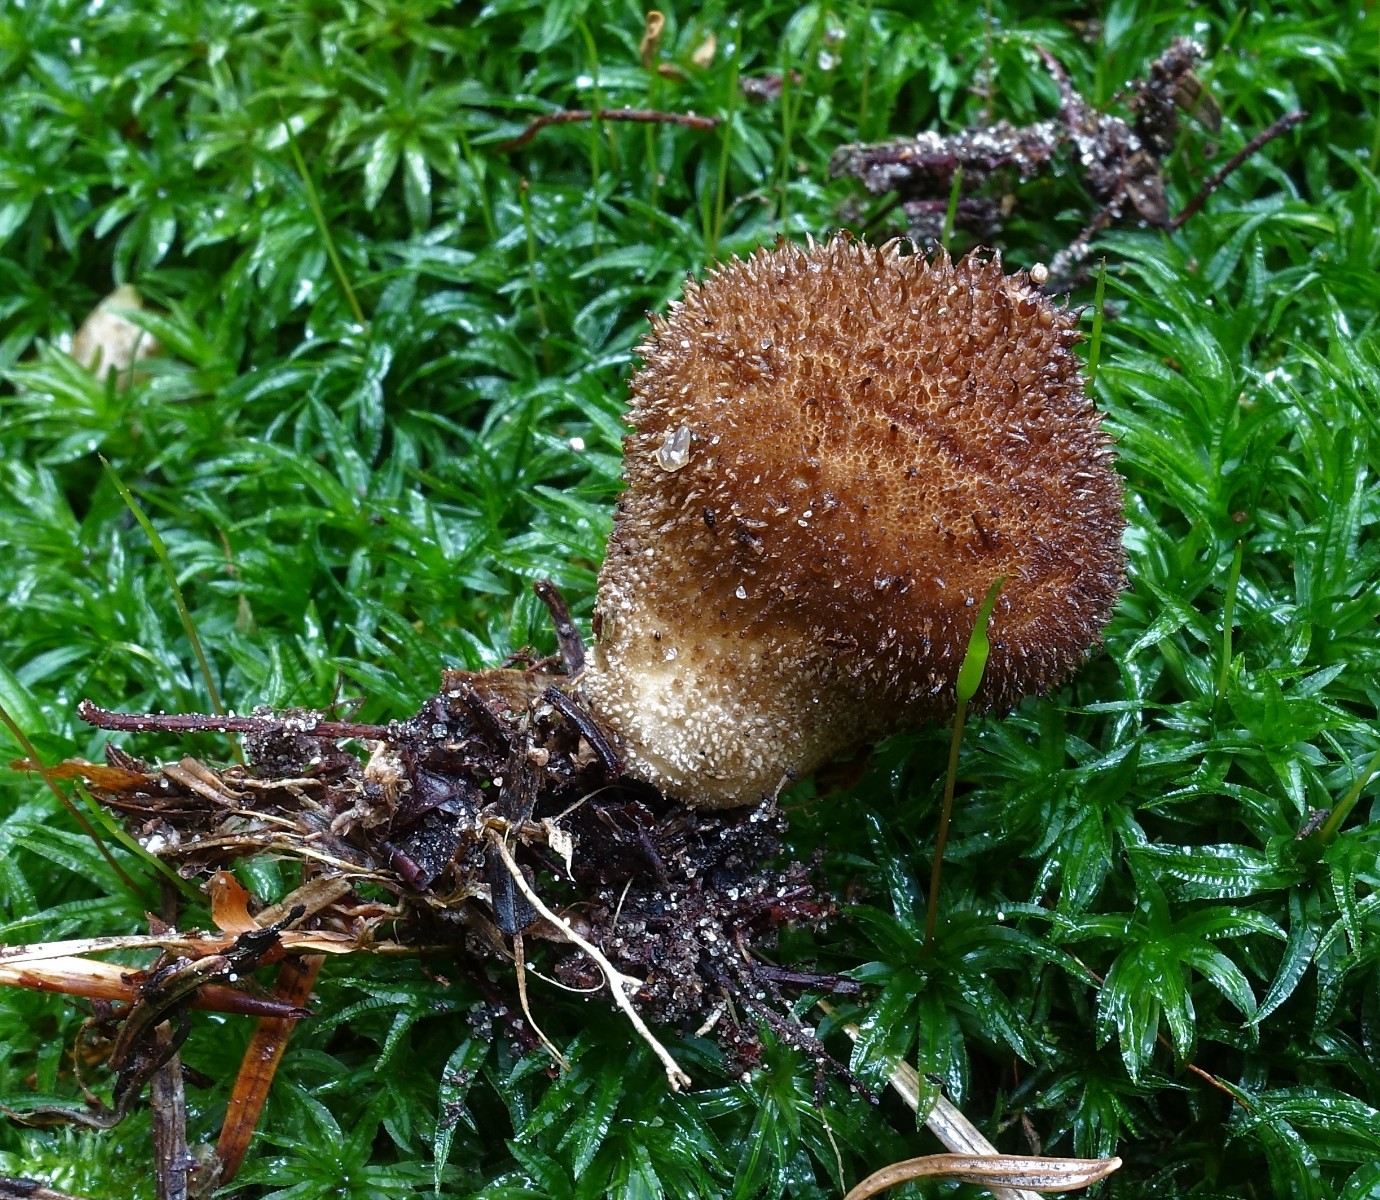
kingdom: Fungi
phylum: Basidiomycota
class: Agaricomycetes
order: Agaricales
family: Lycoperdaceae
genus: Lycoperdon
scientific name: Lycoperdon nigrescens
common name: sortagtig støvbold
